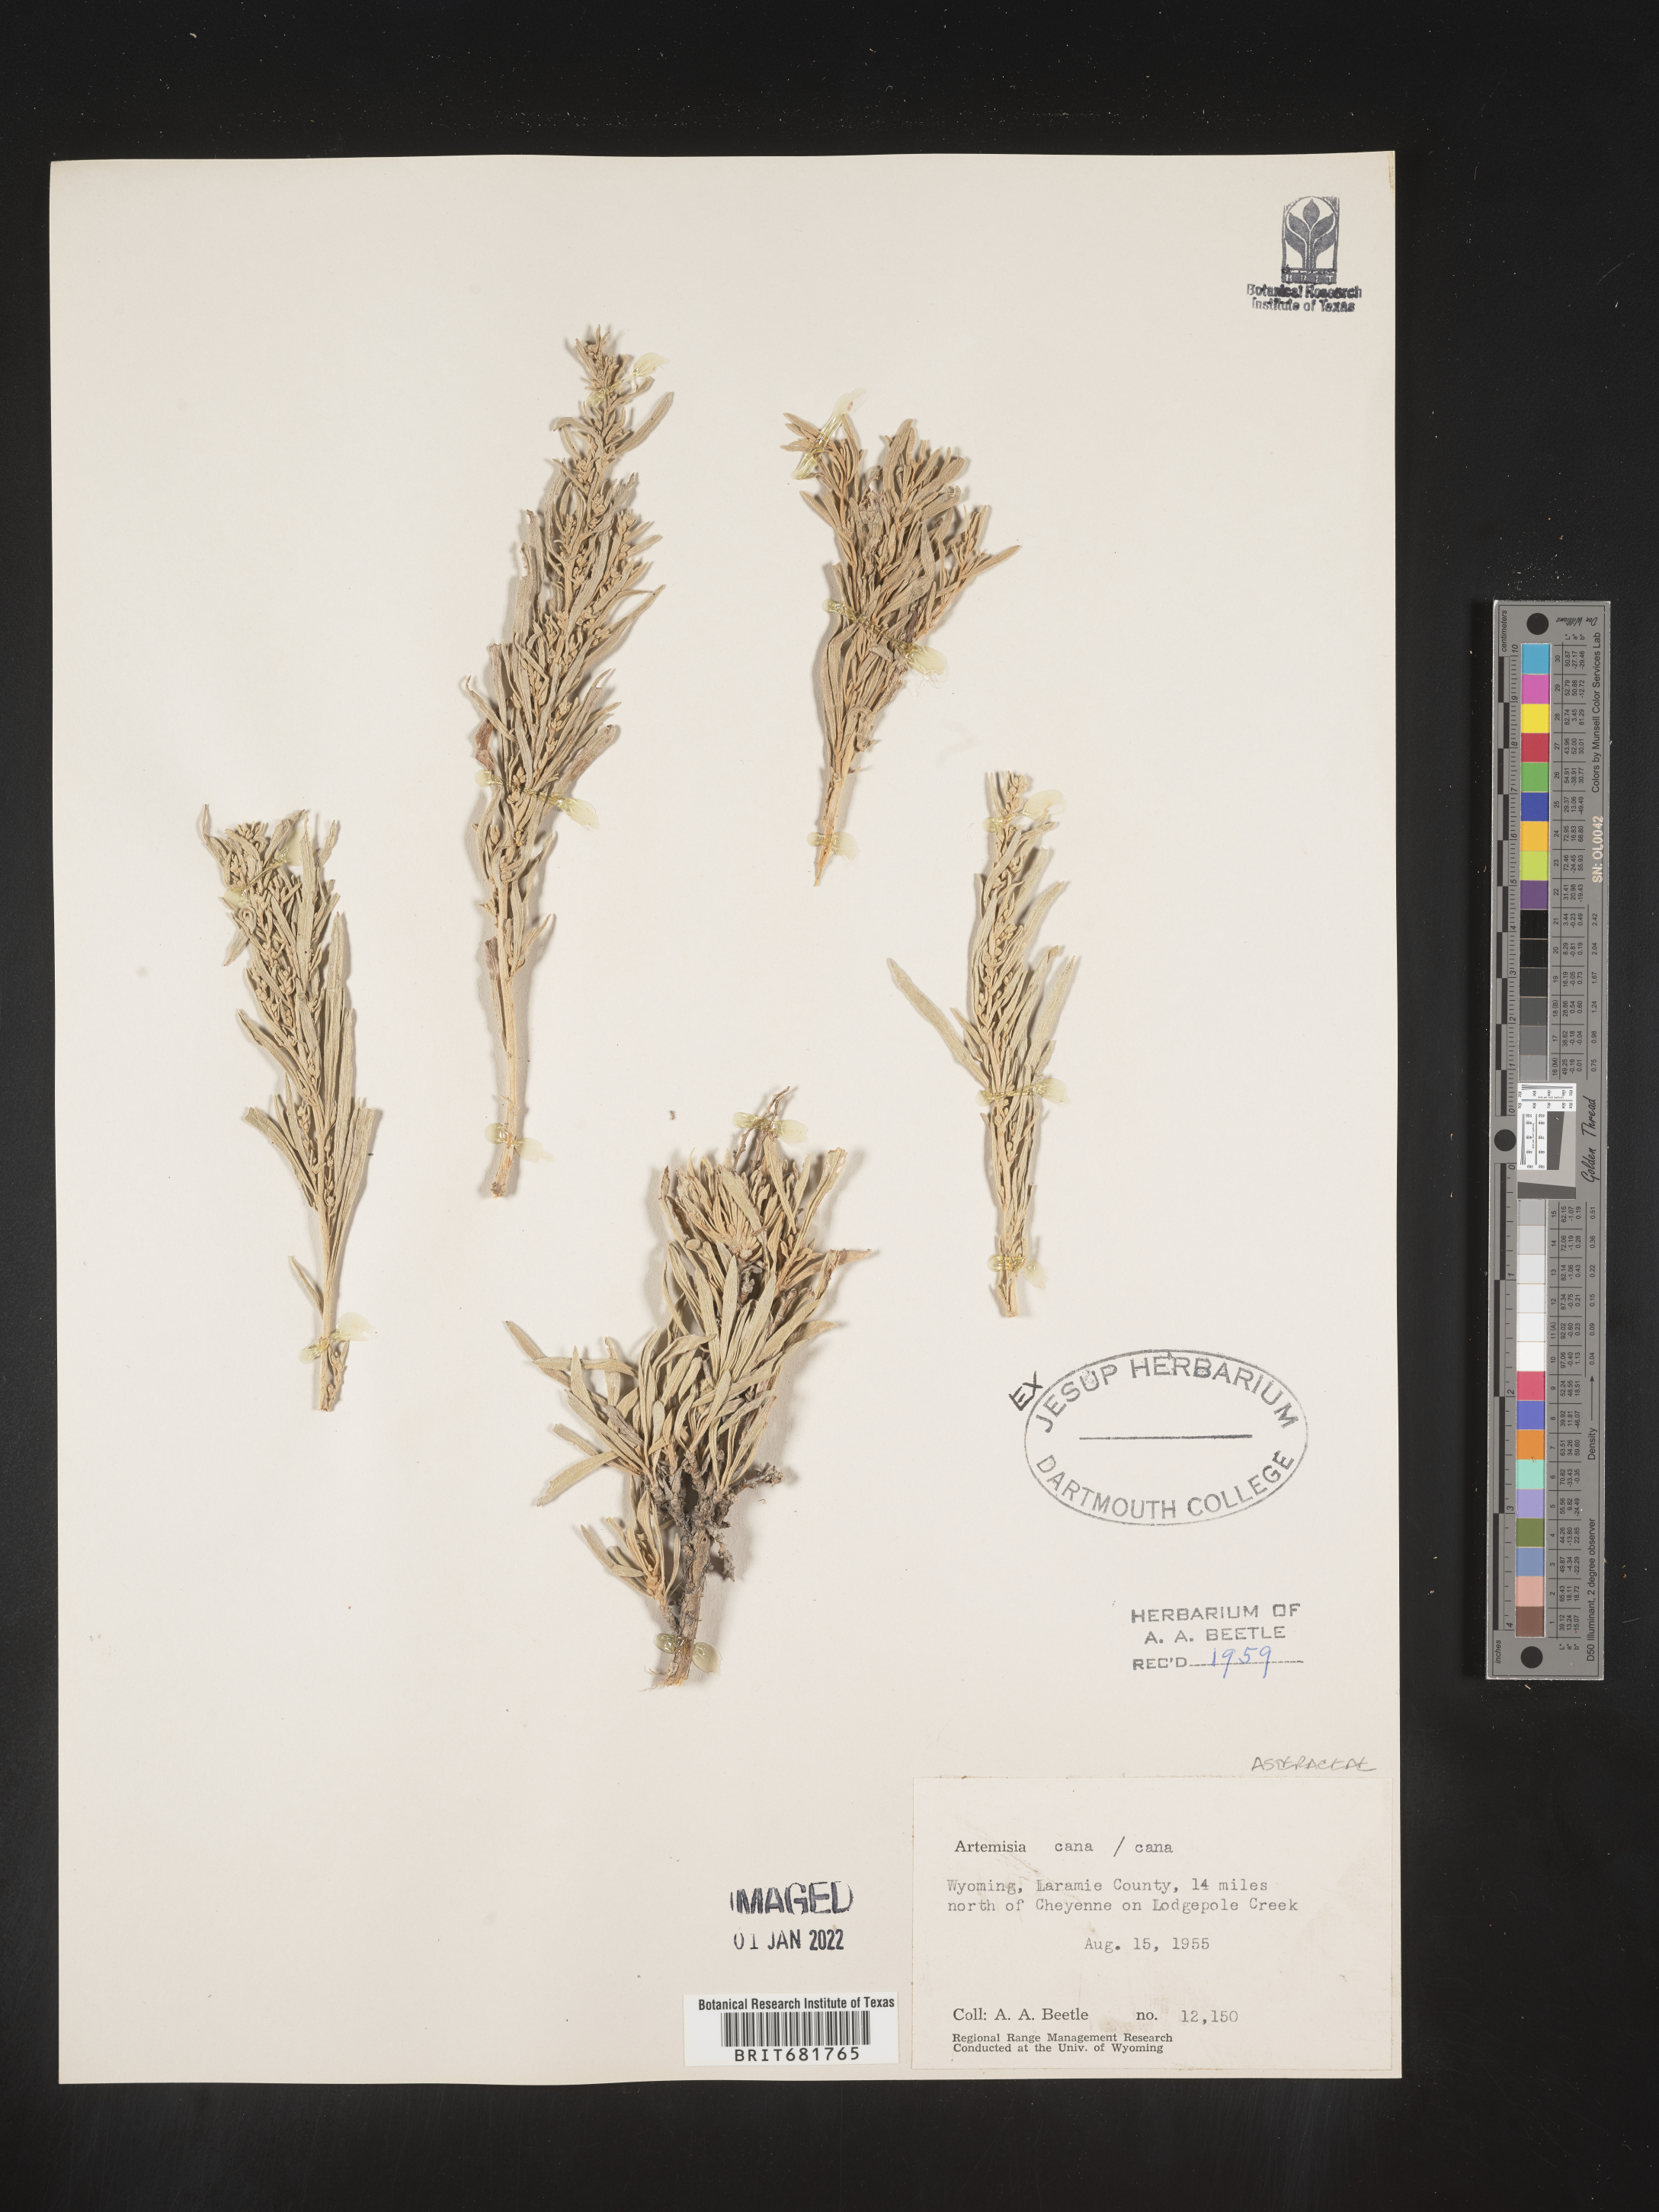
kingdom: Plantae
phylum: Tracheophyta
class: Magnoliopsida
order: Asterales
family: Asteraceae
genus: Artemisia
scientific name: Artemisia cana
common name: Silver sagebrush
